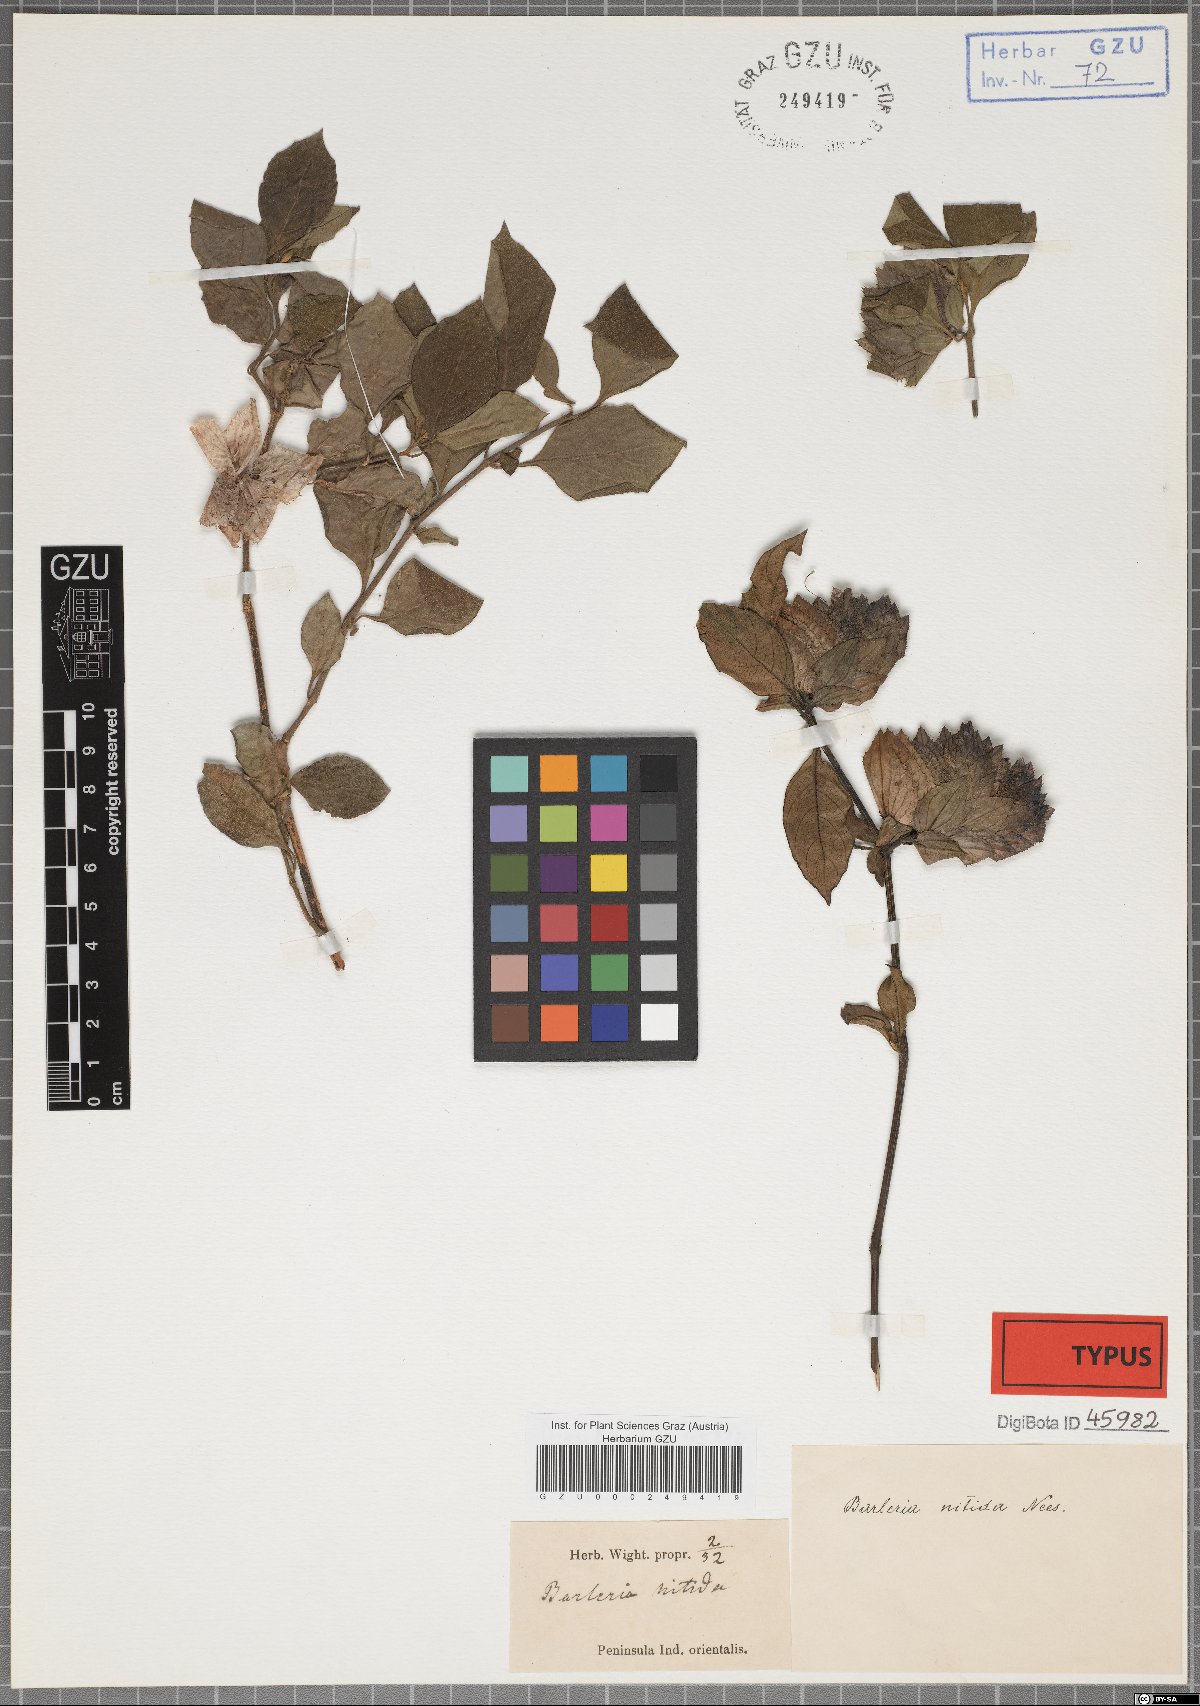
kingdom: Plantae
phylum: Tracheophyta
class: Magnoliopsida
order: Lamiales
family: Acanthaceae
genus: Barleria
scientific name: Barleria nitida
